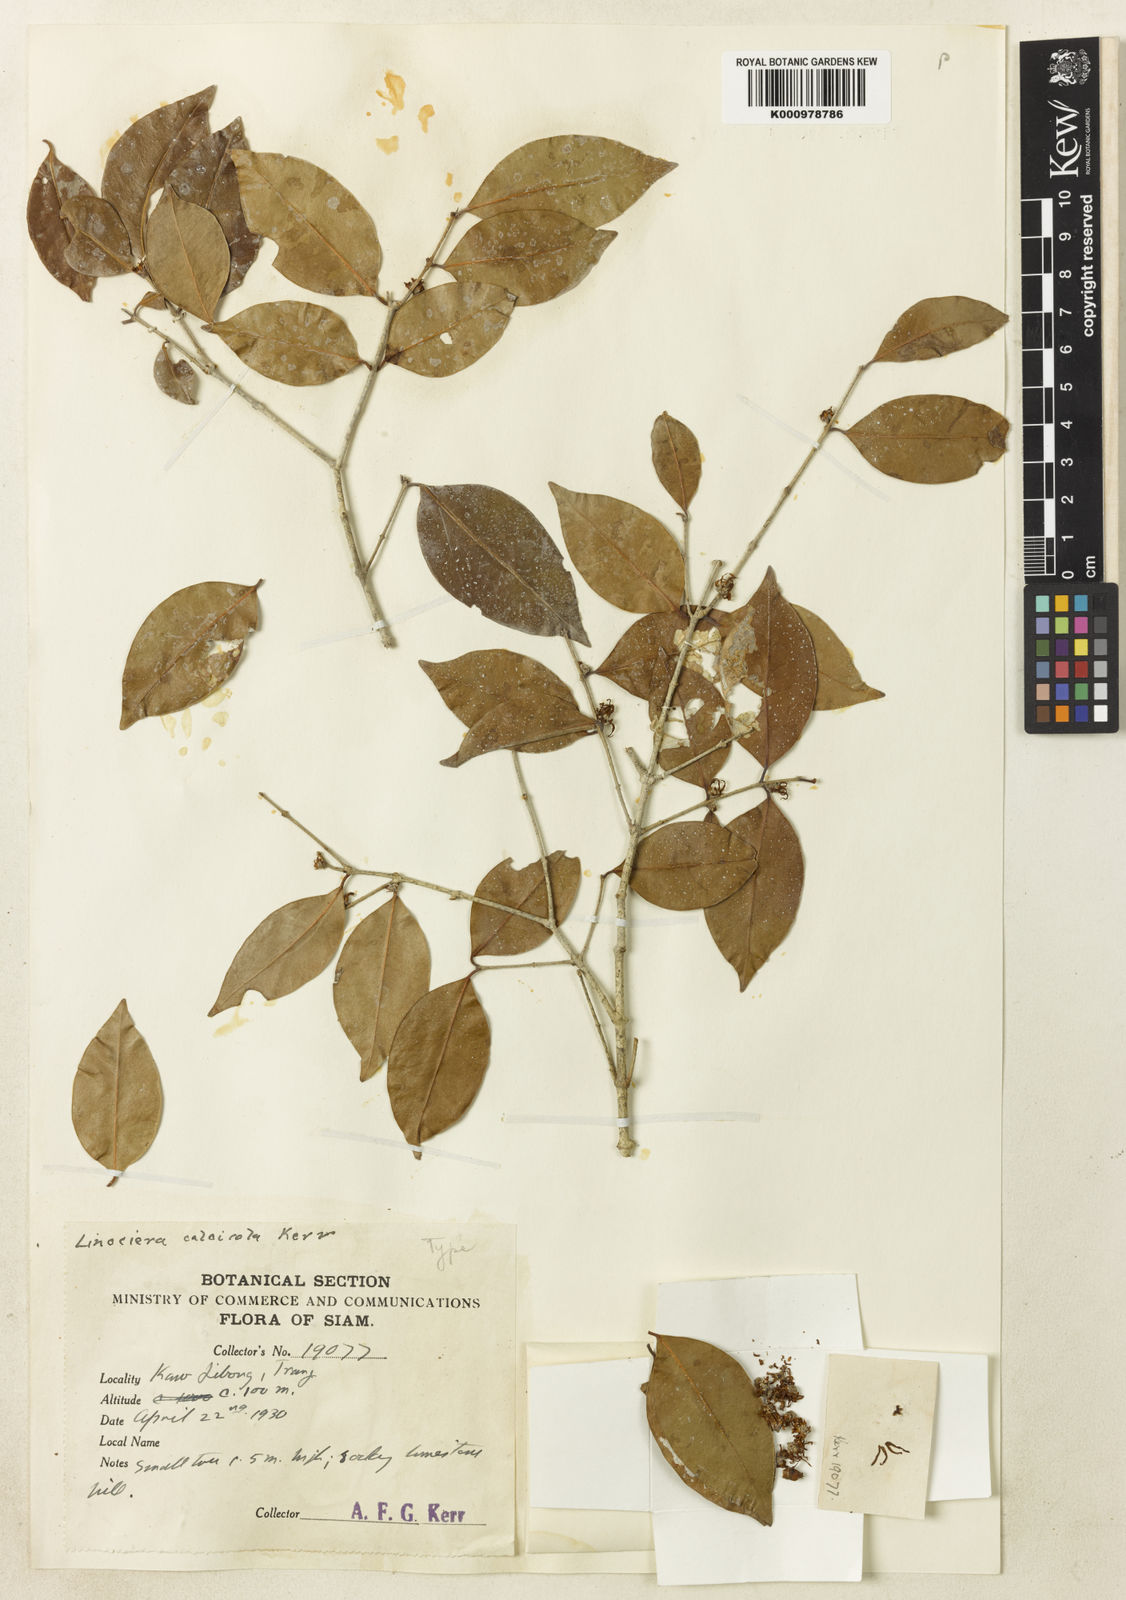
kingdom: Plantae
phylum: Tracheophyta
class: Magnoliopsida
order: Lamiales
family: Oleaceae
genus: Chionanthus
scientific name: Chionanthus parkinsonii
